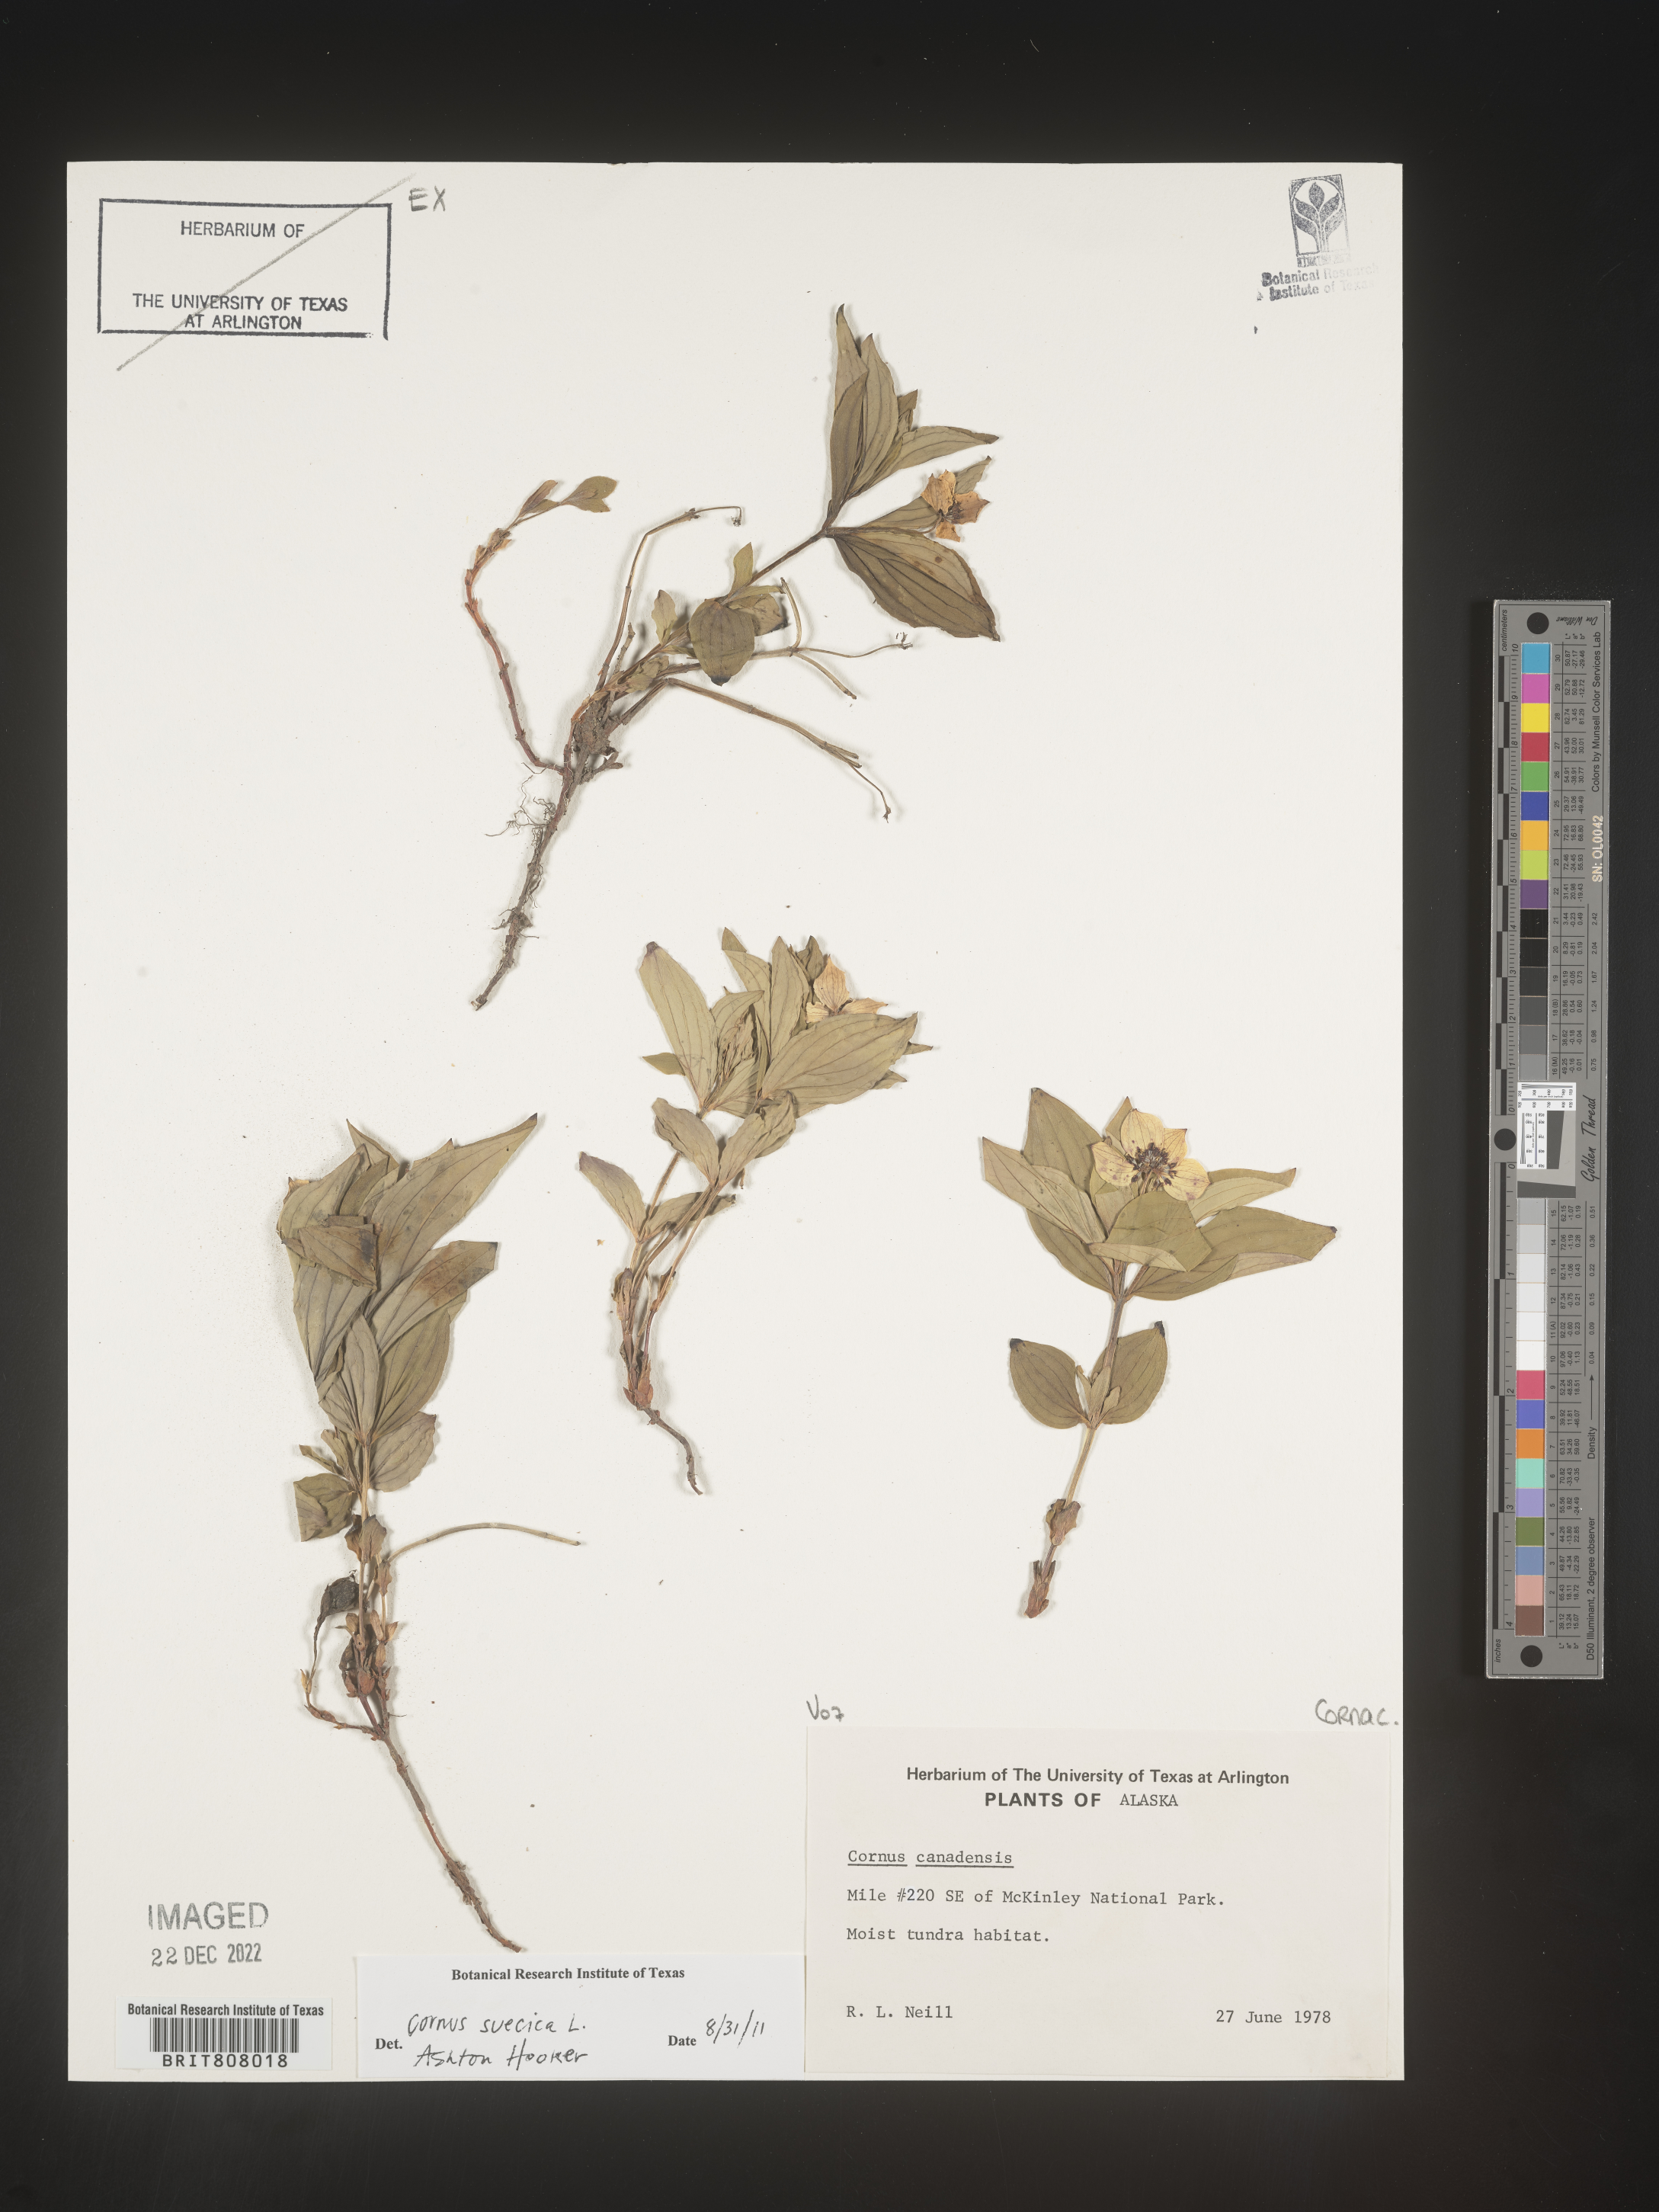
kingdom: Plantae
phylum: Tracheophyta
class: Magnoliopsida
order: Cornales
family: Cornaceae
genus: Cornus
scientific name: Cornus
